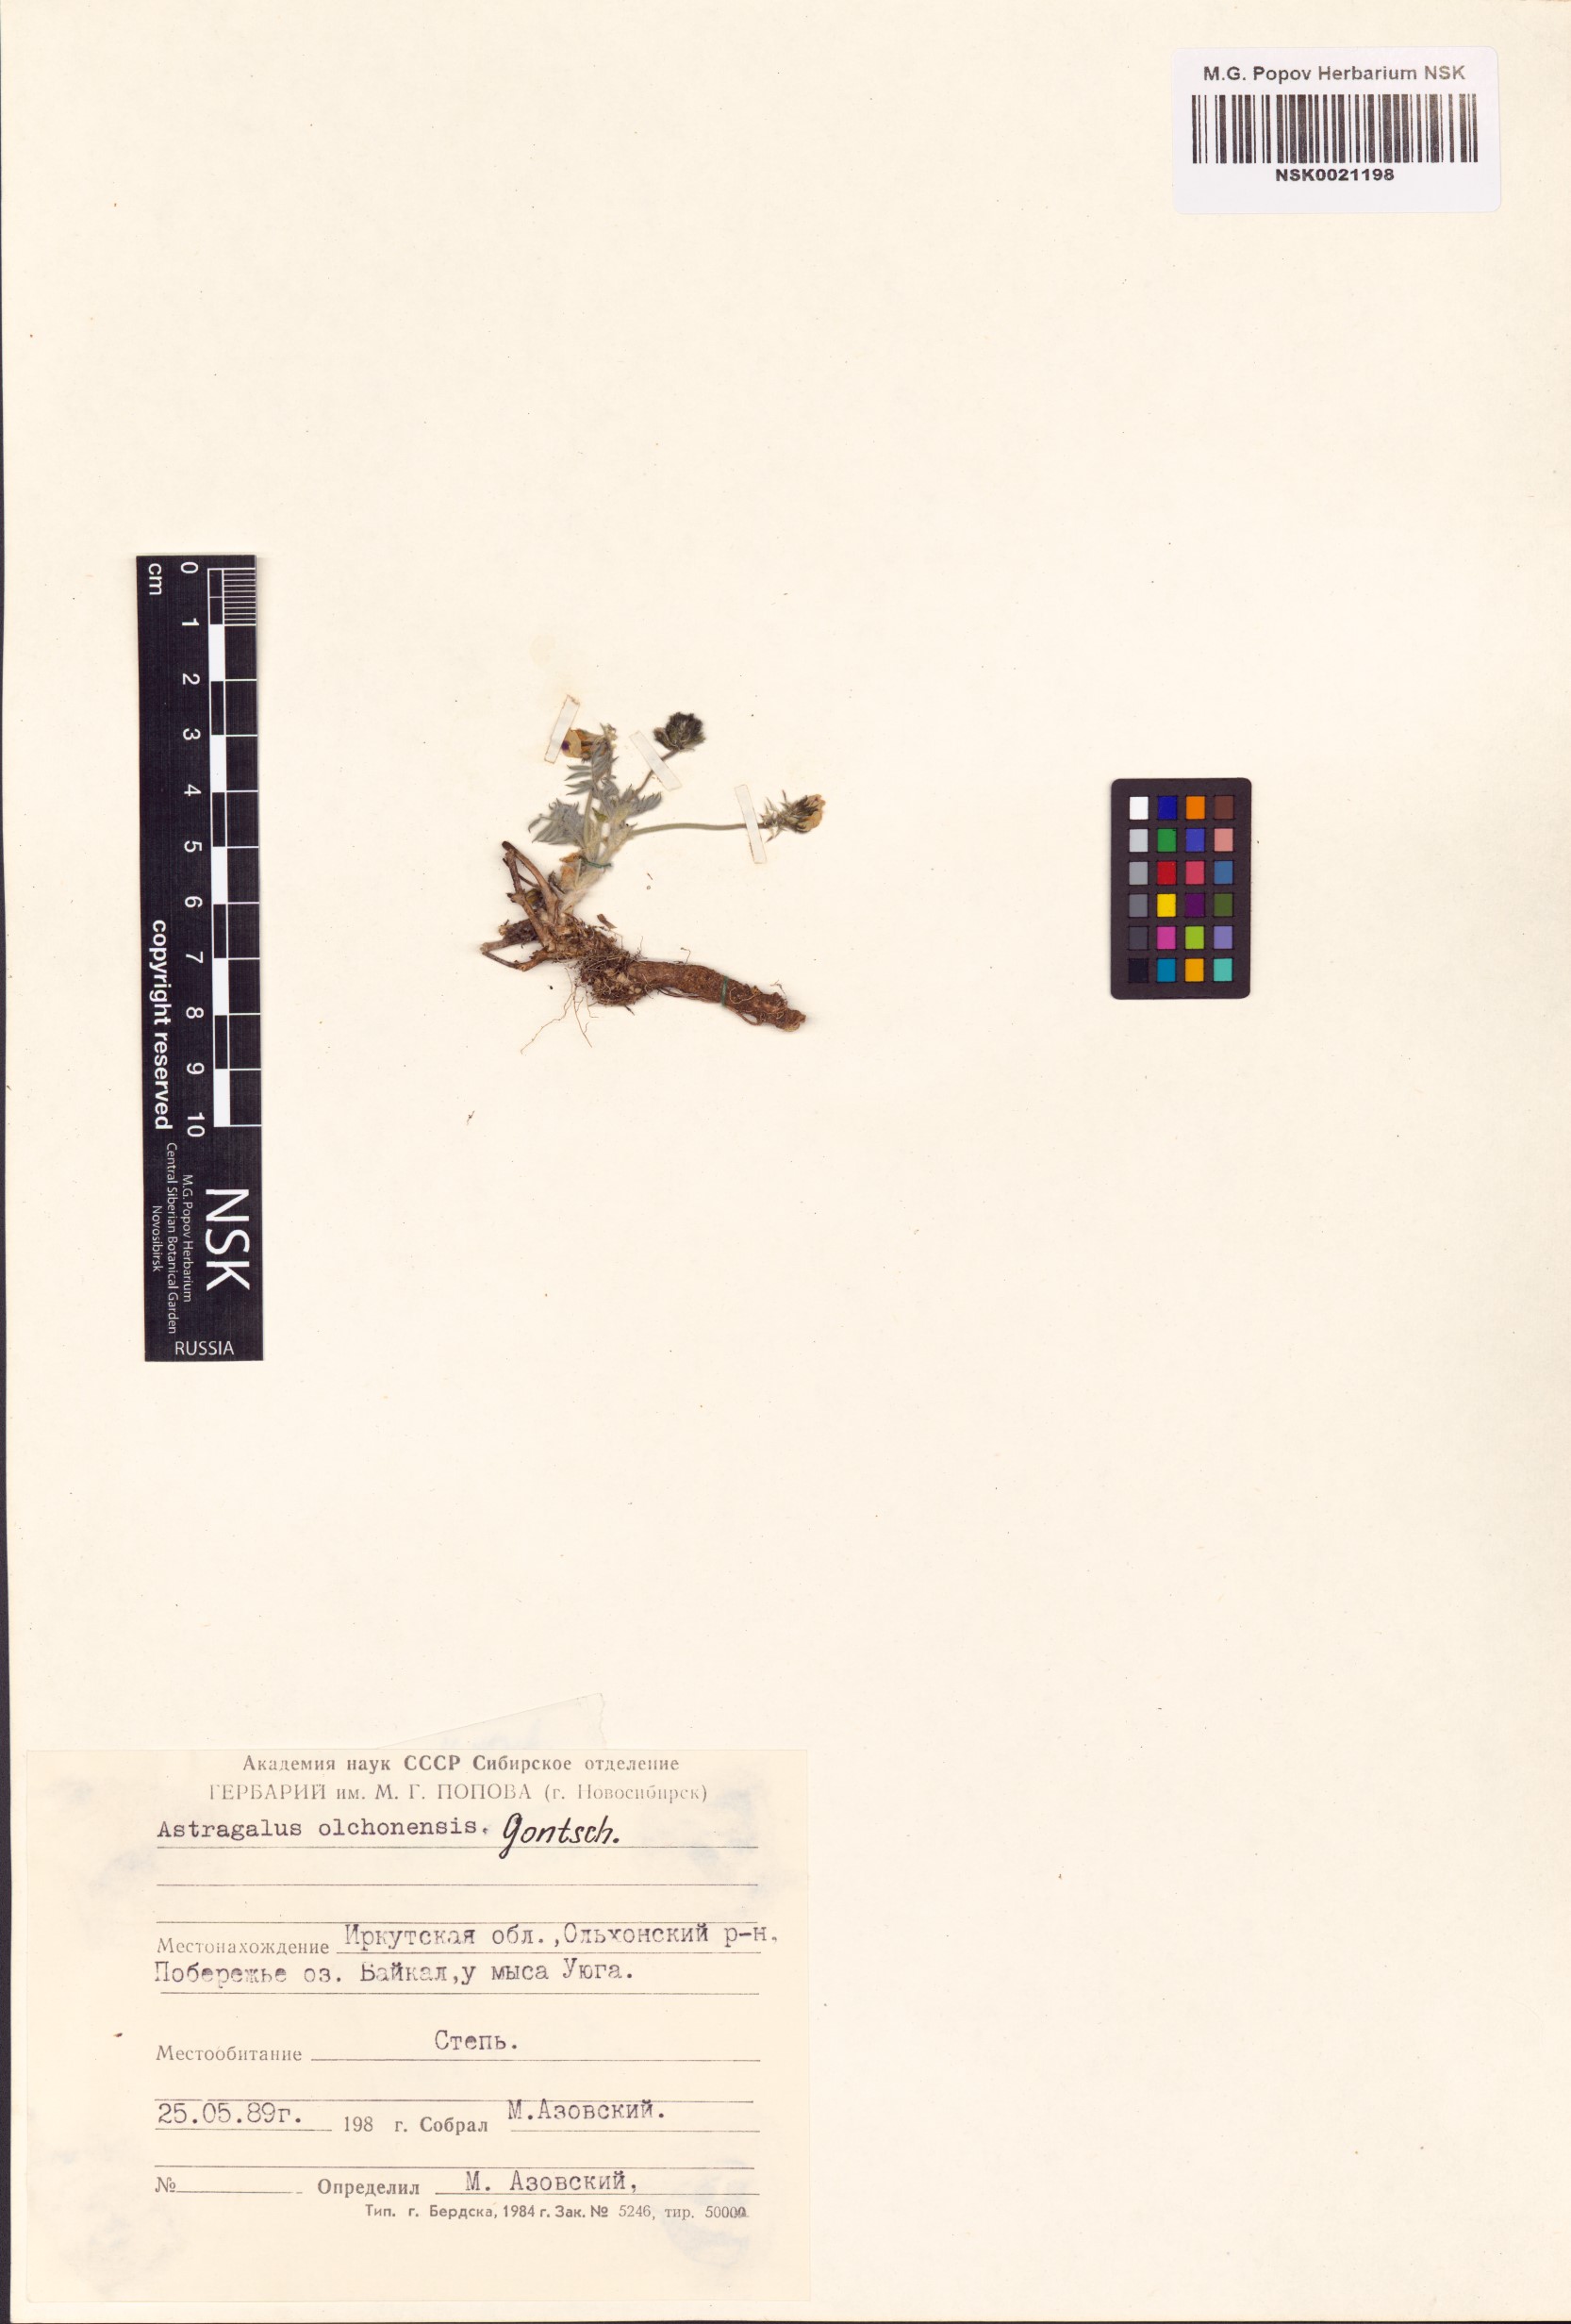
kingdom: Plantae
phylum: Tracheophyta
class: Magnoliopsida
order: Fabales
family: Fabaceae
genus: Astragalus
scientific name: Astragalus olchonensis
